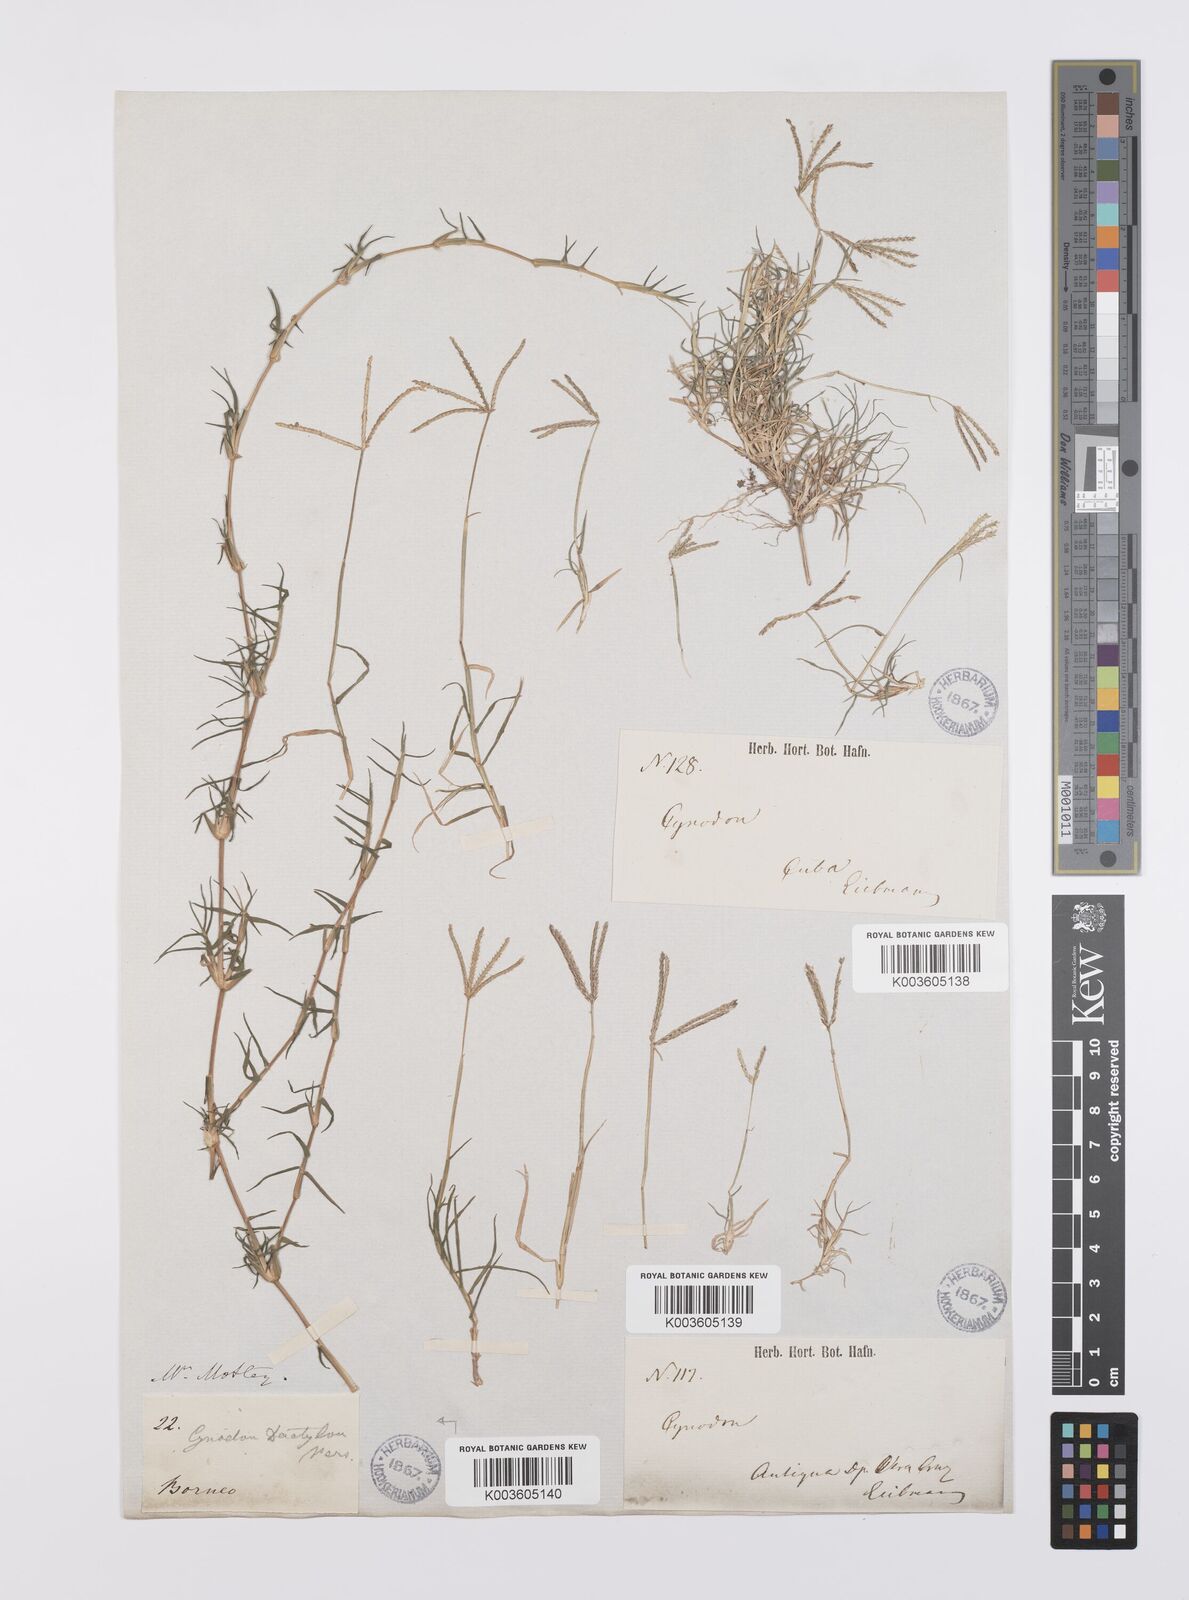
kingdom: Plantae
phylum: Tracheophyta
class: Liliopsida
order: Poales
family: Poaceae
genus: Cynodon
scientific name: Cynodon dactylon
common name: Bermuda grass
